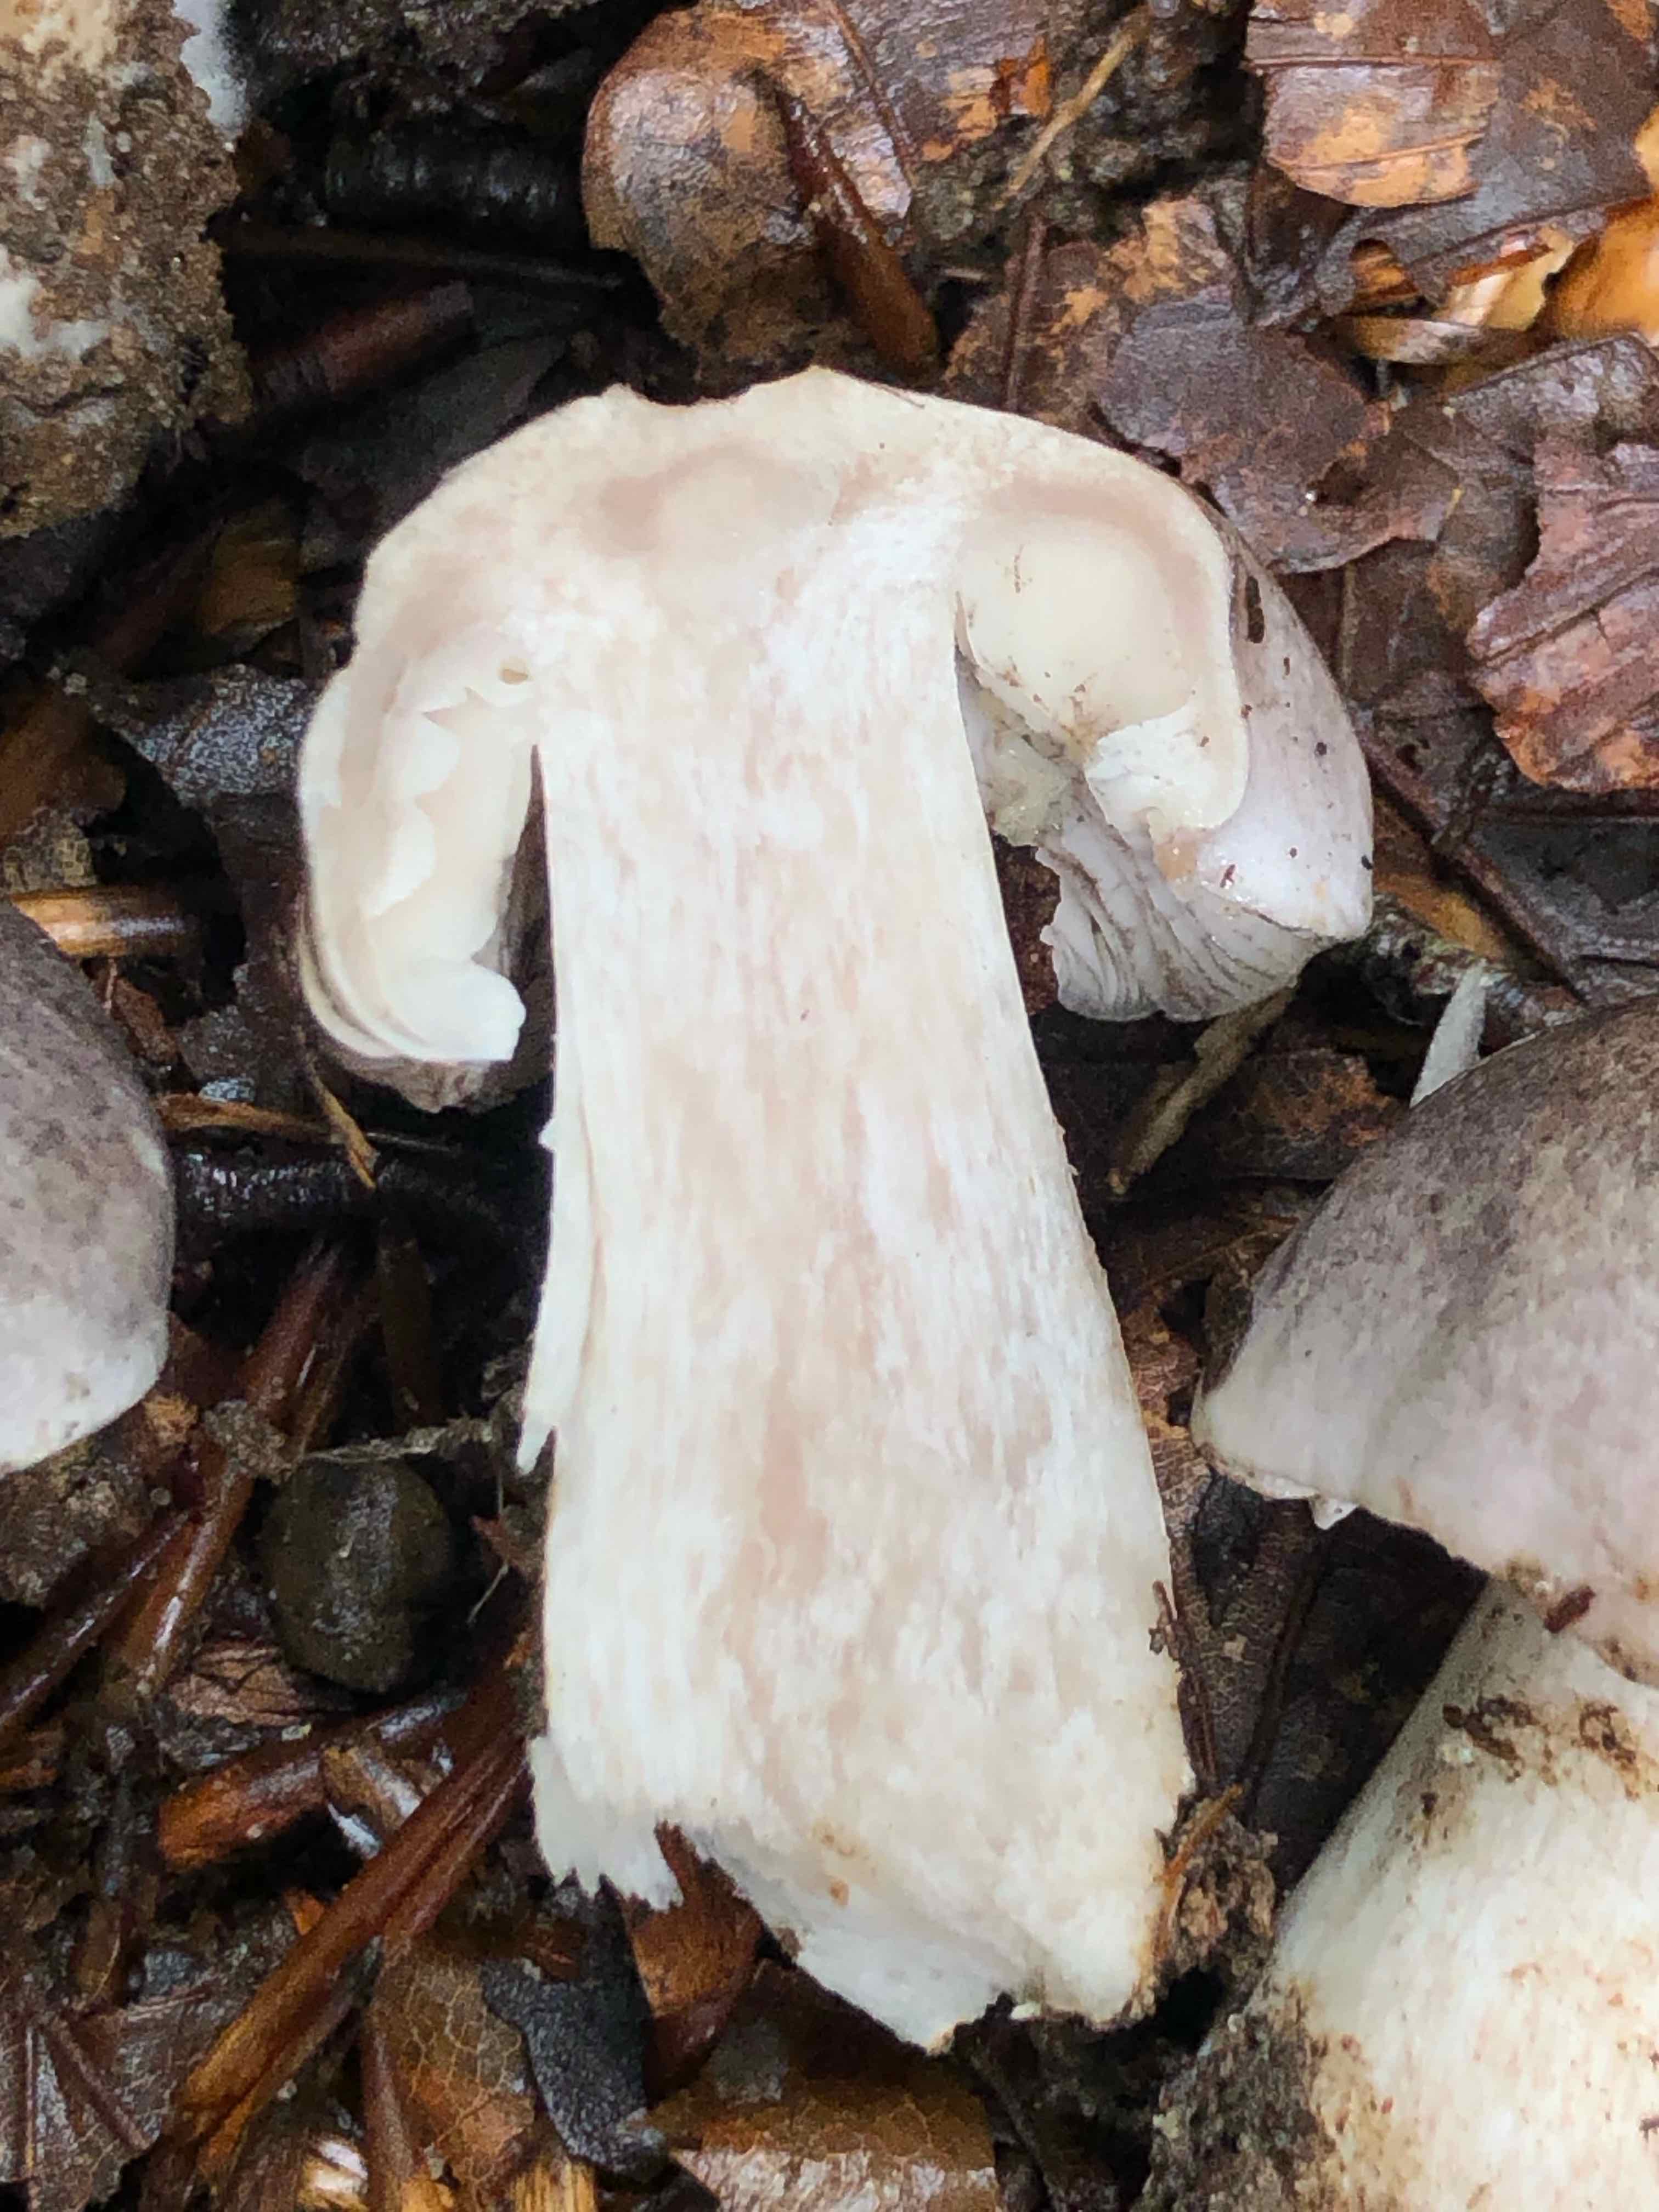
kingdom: Fungi
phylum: Basidiomycota
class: Agaricomycetes
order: Agaricales
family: Tricholomataceae
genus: Tricholoma
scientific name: Tricholoma sciodes
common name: stribet ridderhat
